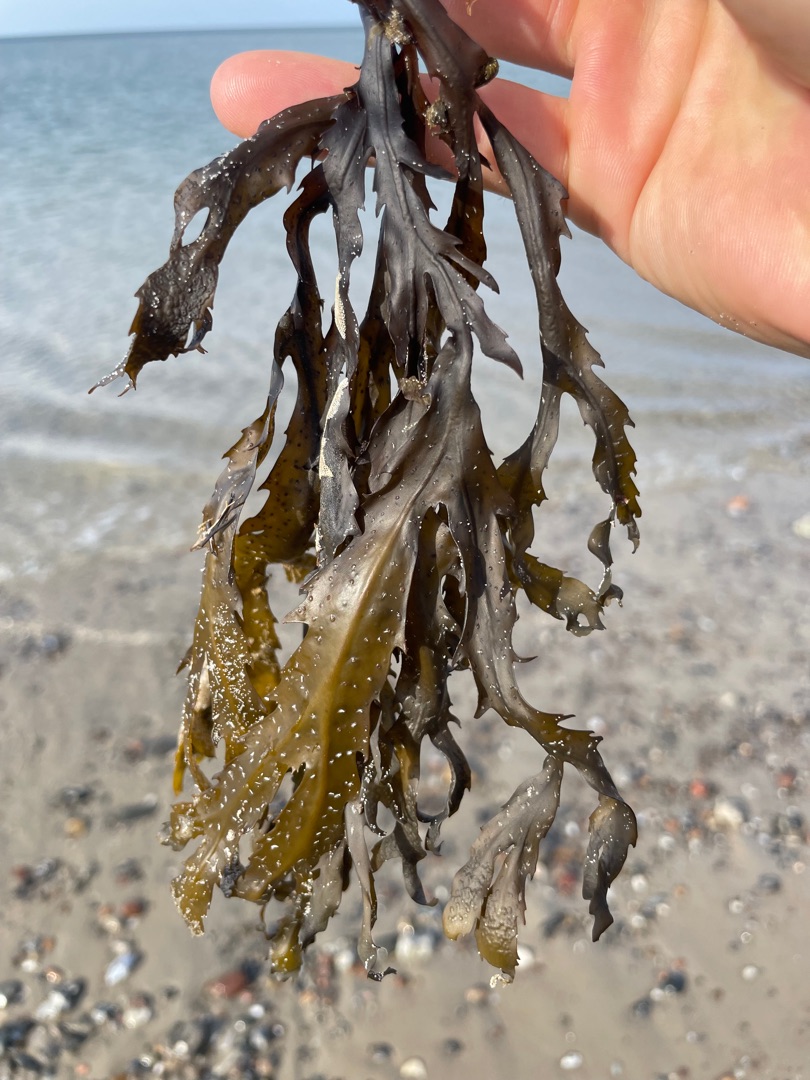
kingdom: Chromista
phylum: Ochrophyta
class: Phaeophyceae
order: Fucales
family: Fucaceae
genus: Fucus
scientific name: Fucus serratus
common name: Savtang
